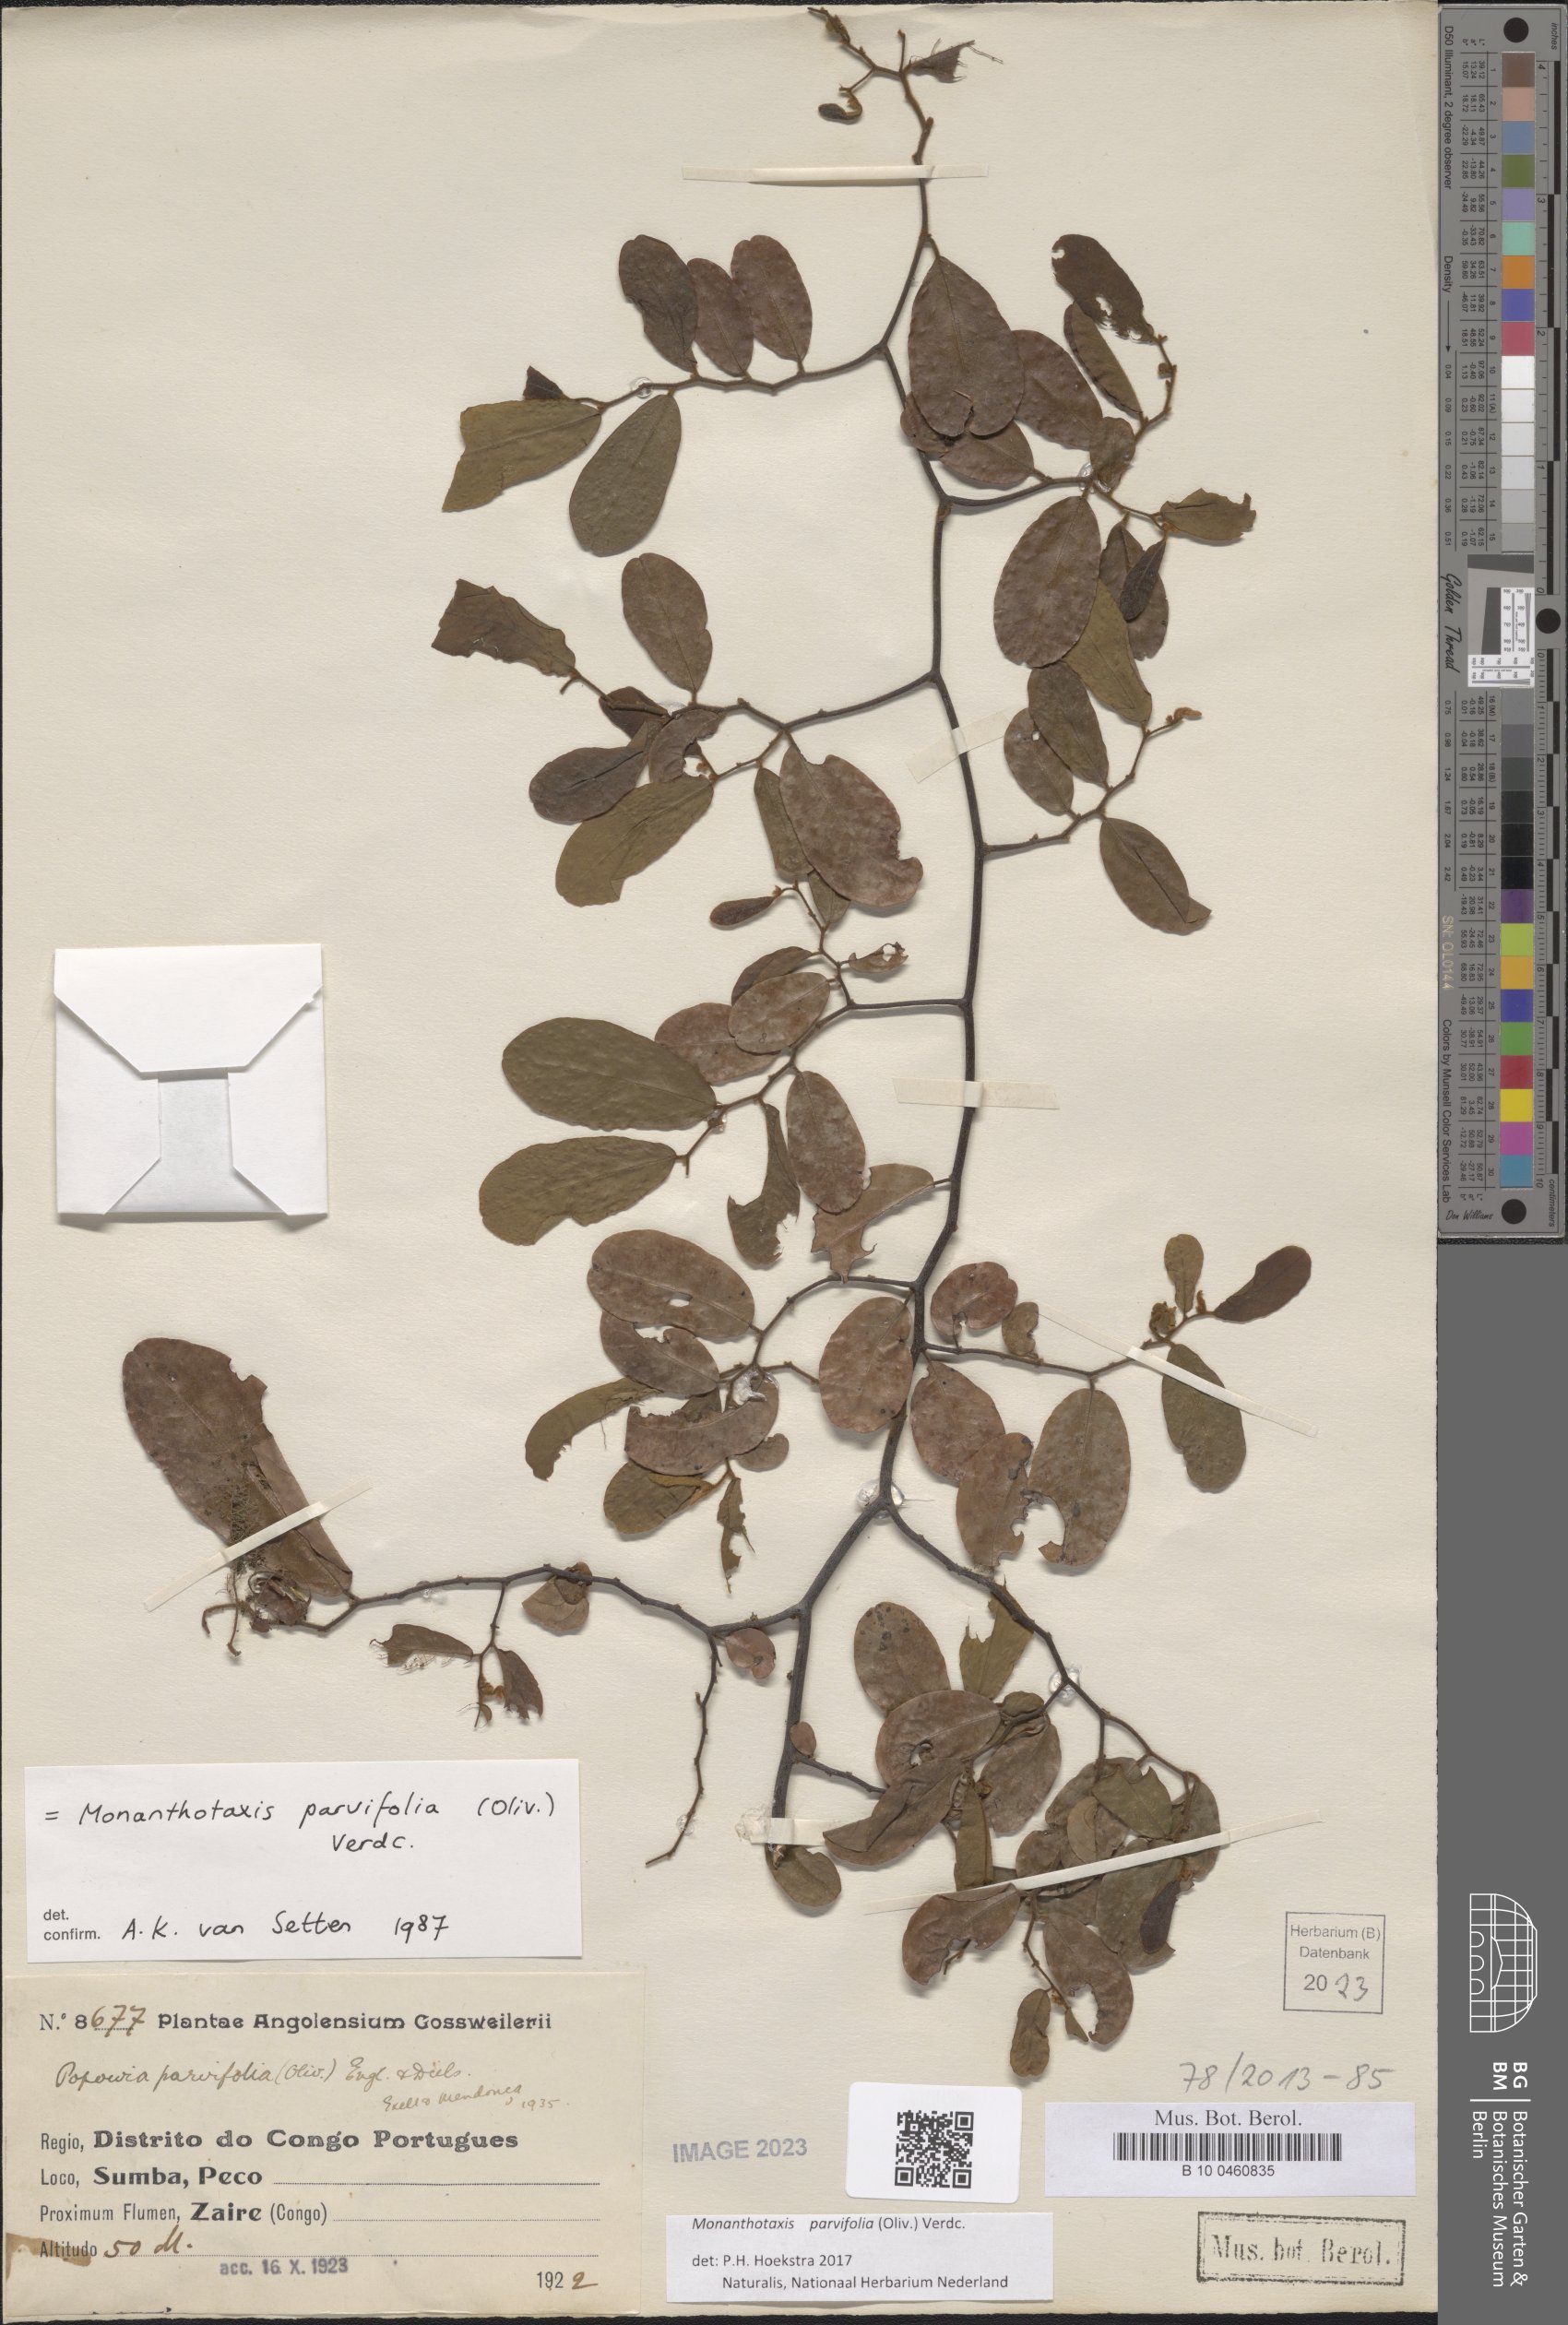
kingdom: Plantae
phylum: Tracheophyta
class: Magnoliopsida
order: Magnoliales
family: Annonaceae
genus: Monanthotaxis
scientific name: Monanthotaxis parvifolia
